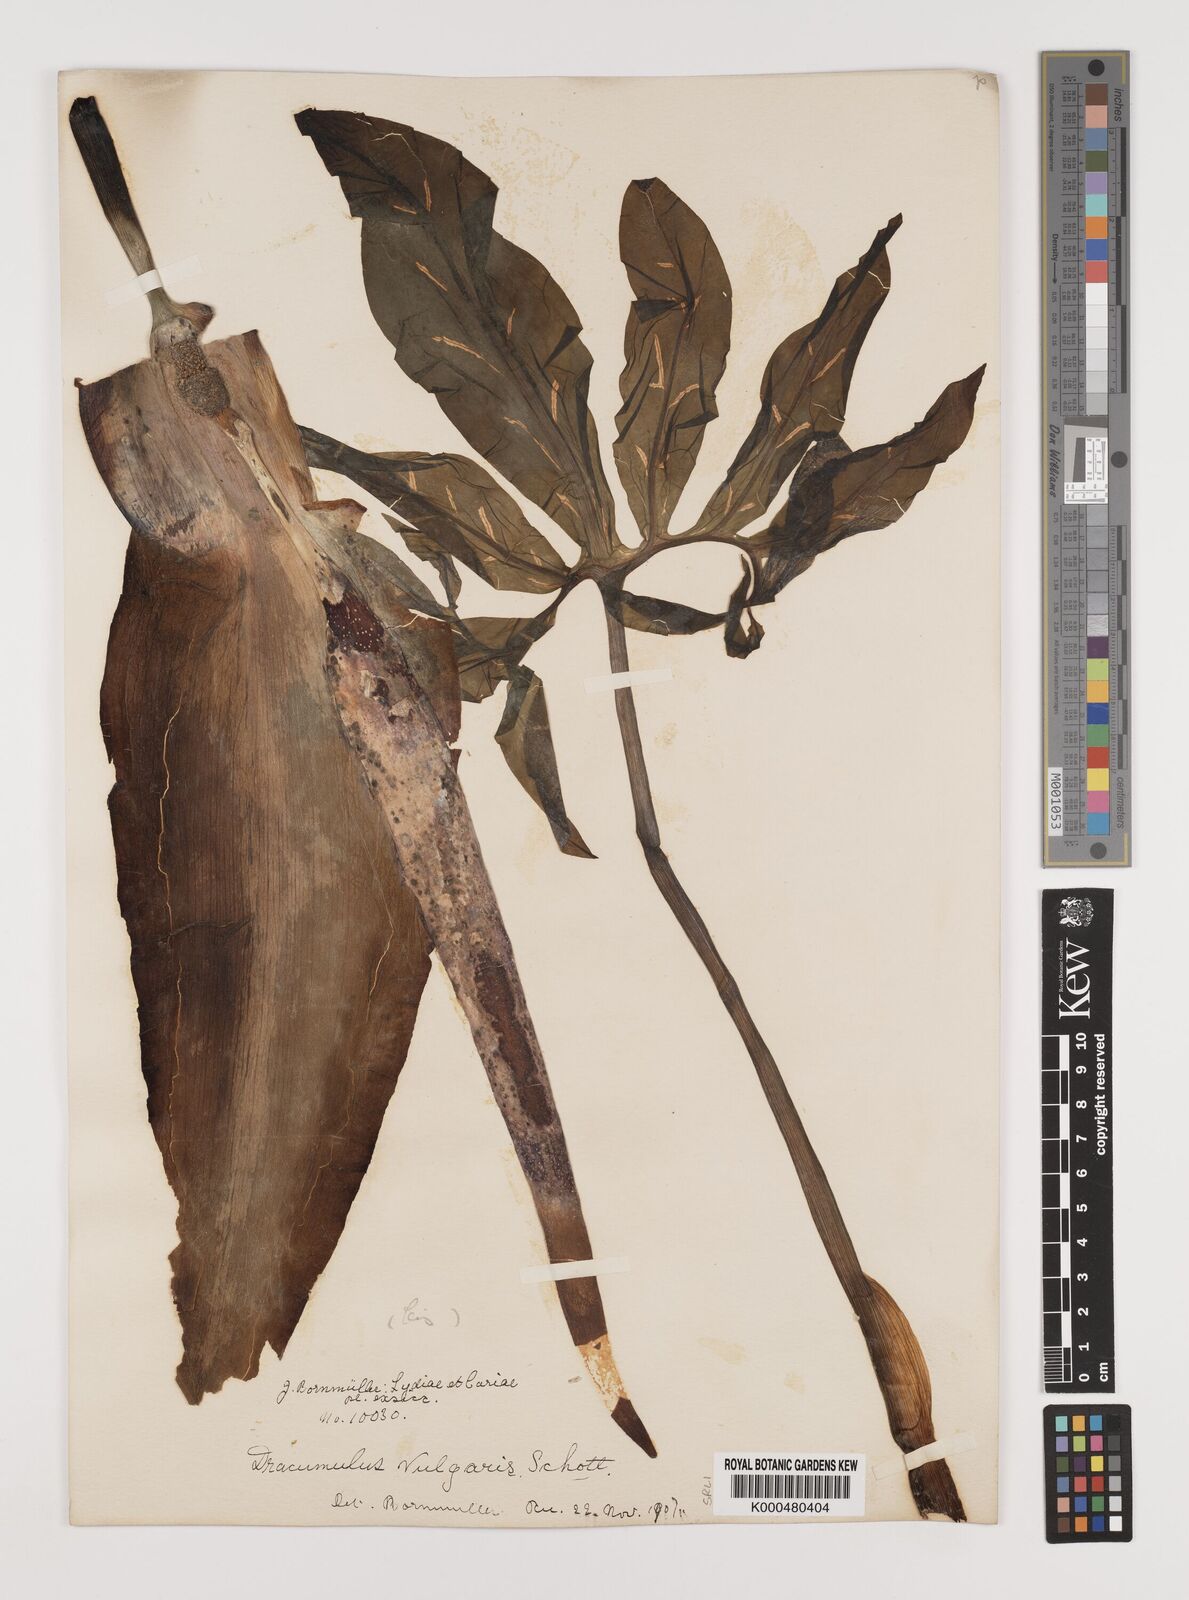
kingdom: Plantae
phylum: Tracheophyta
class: Liliopsida
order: Alismatales
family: Araceae
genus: Dracunculus
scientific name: Dracunculus vulgaris
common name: Dragon arum
